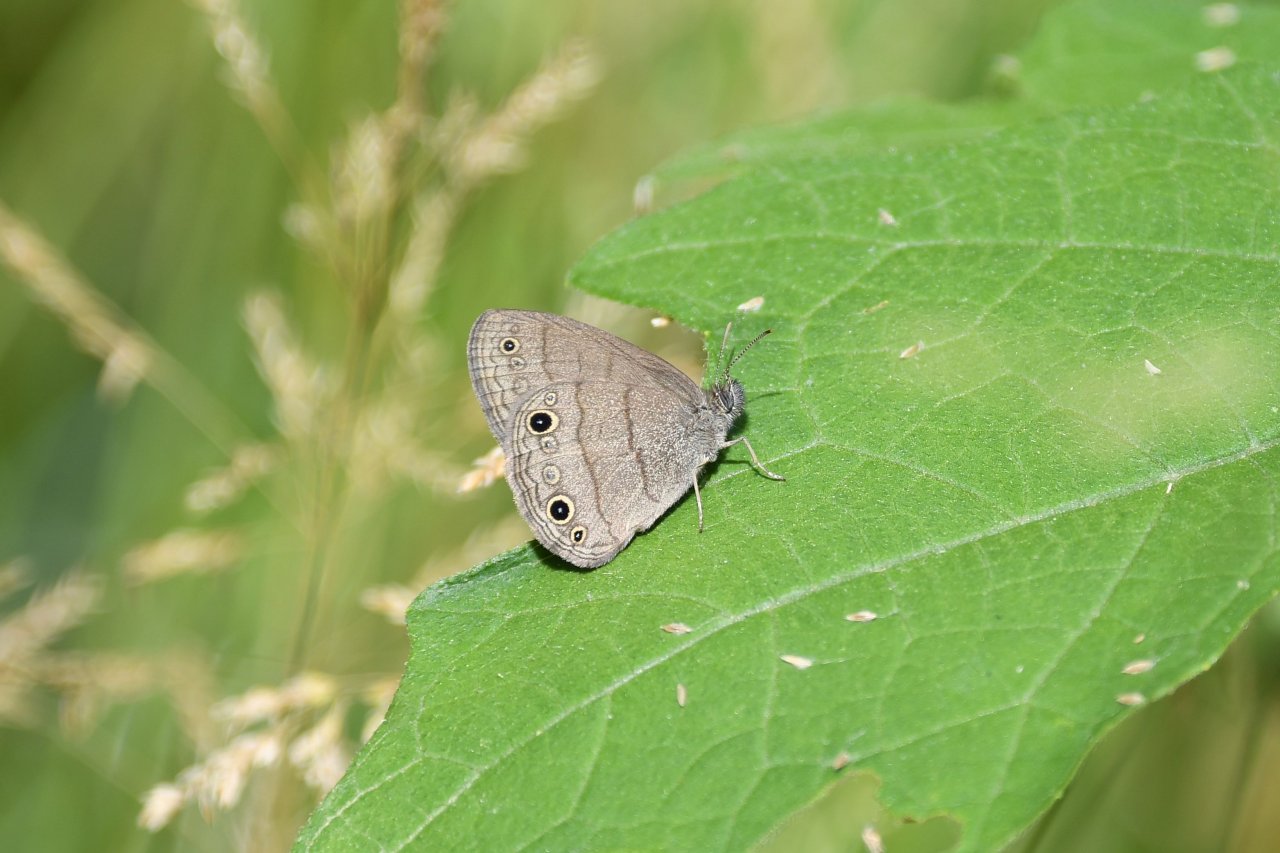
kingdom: Animalia
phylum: Arthropoda
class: Insecta
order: Lepidoptera
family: Nymphalidae
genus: Hermeuptychia
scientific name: Hermeuptychia hermes
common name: Carolina Satyr
